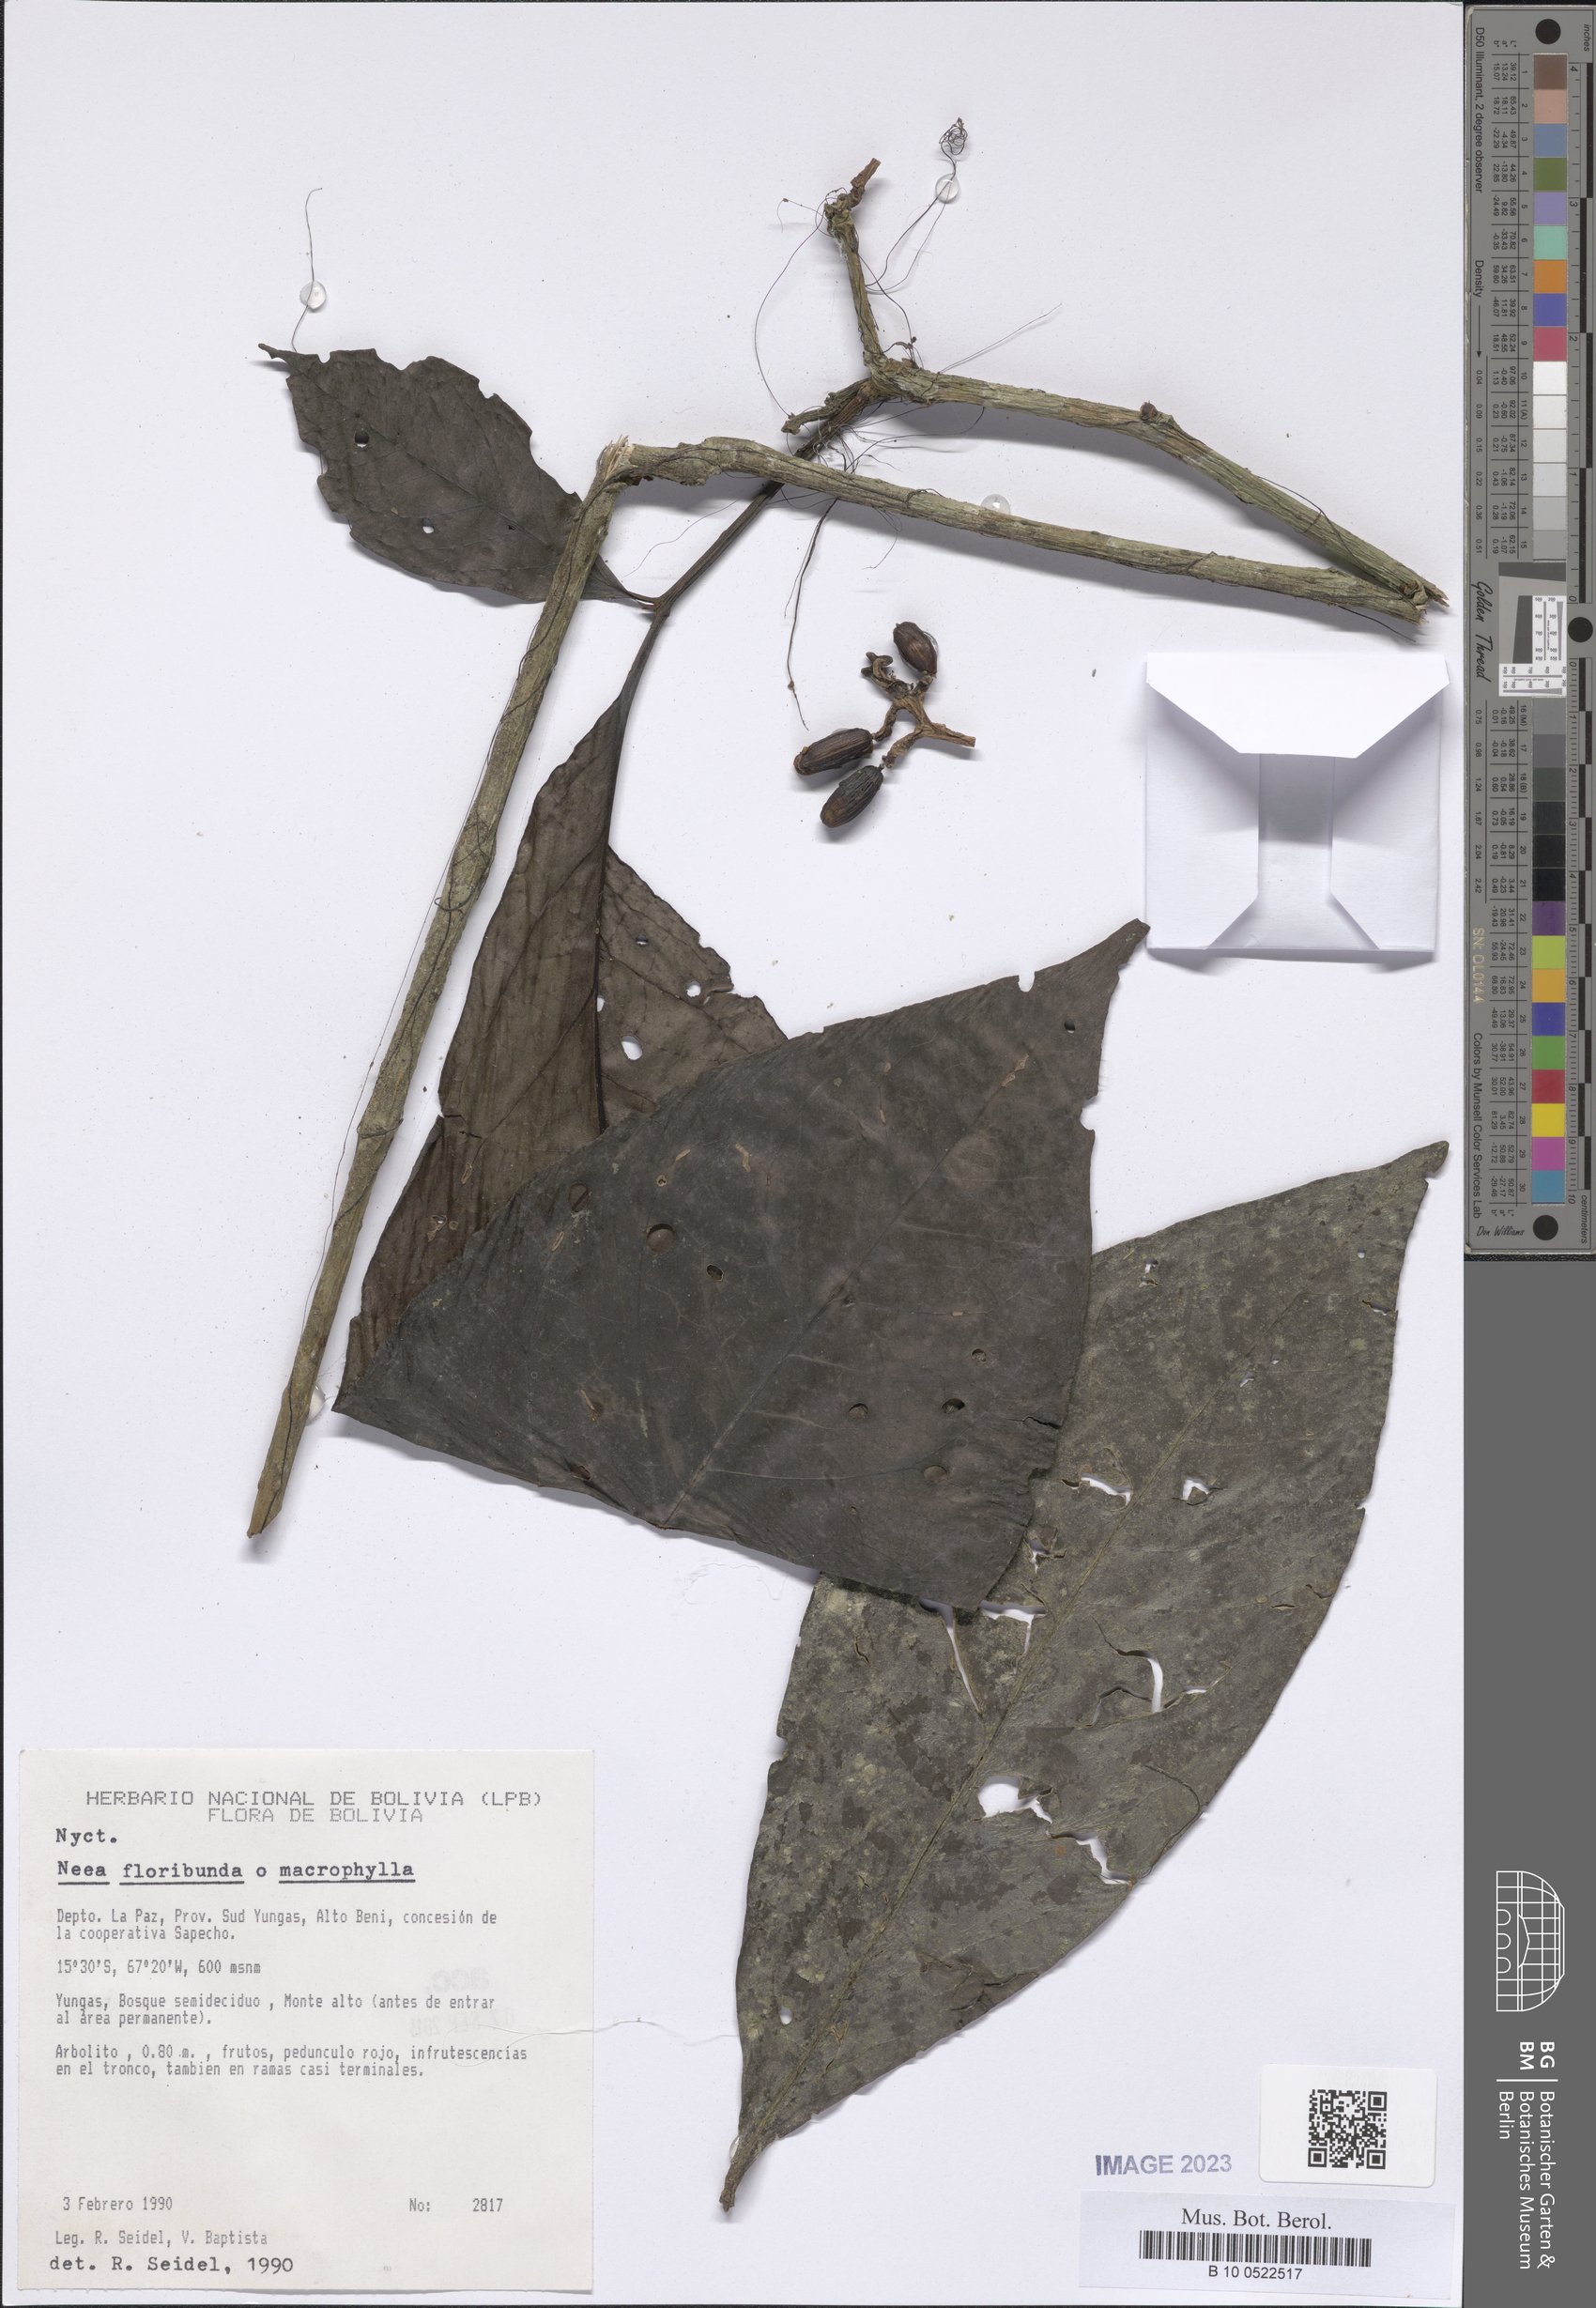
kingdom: Plantae
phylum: Tracheophyta
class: Magnoliopsida
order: Caryophyllales
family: Nyctaginaceae
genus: Neea
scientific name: Neea floribunda
